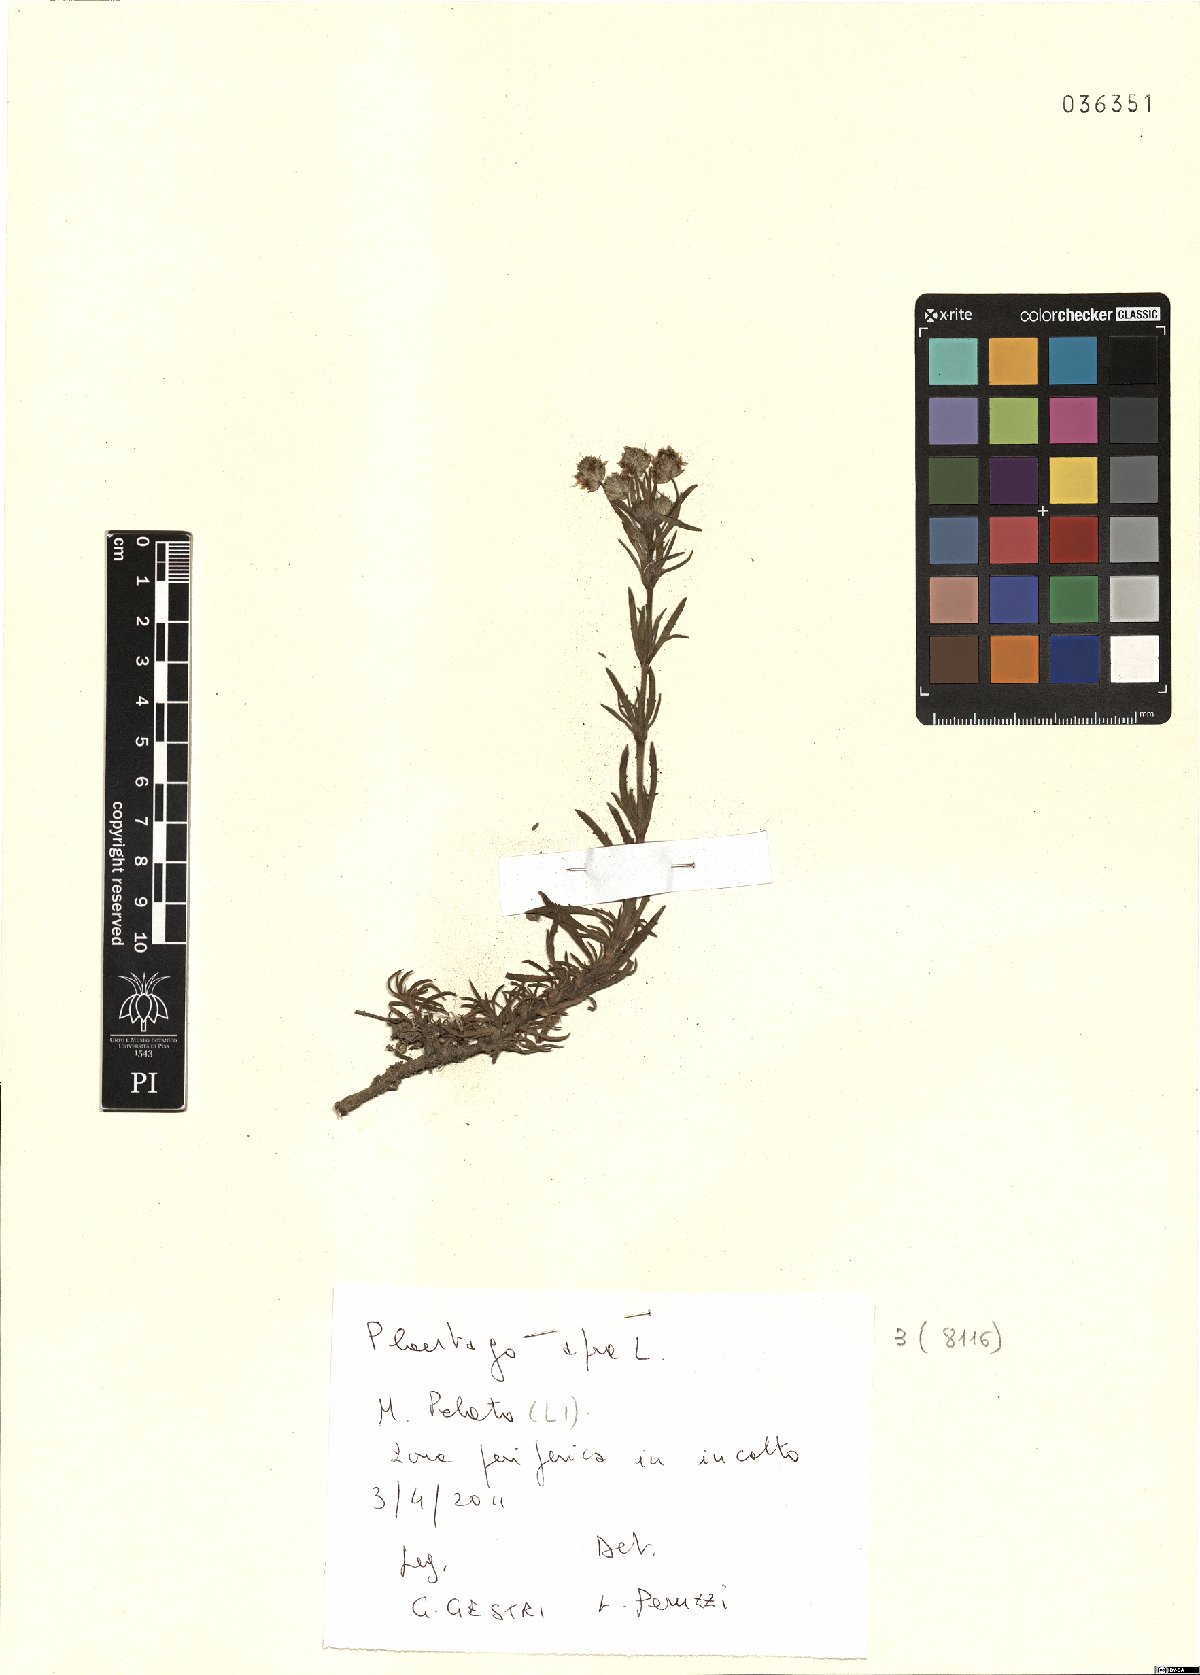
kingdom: Plantae
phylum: Tracheophyta
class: Magnoliopsida
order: Lamiales
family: Plantaginaceae
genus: Plantago
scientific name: Plantago afra
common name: Glandular plantain
